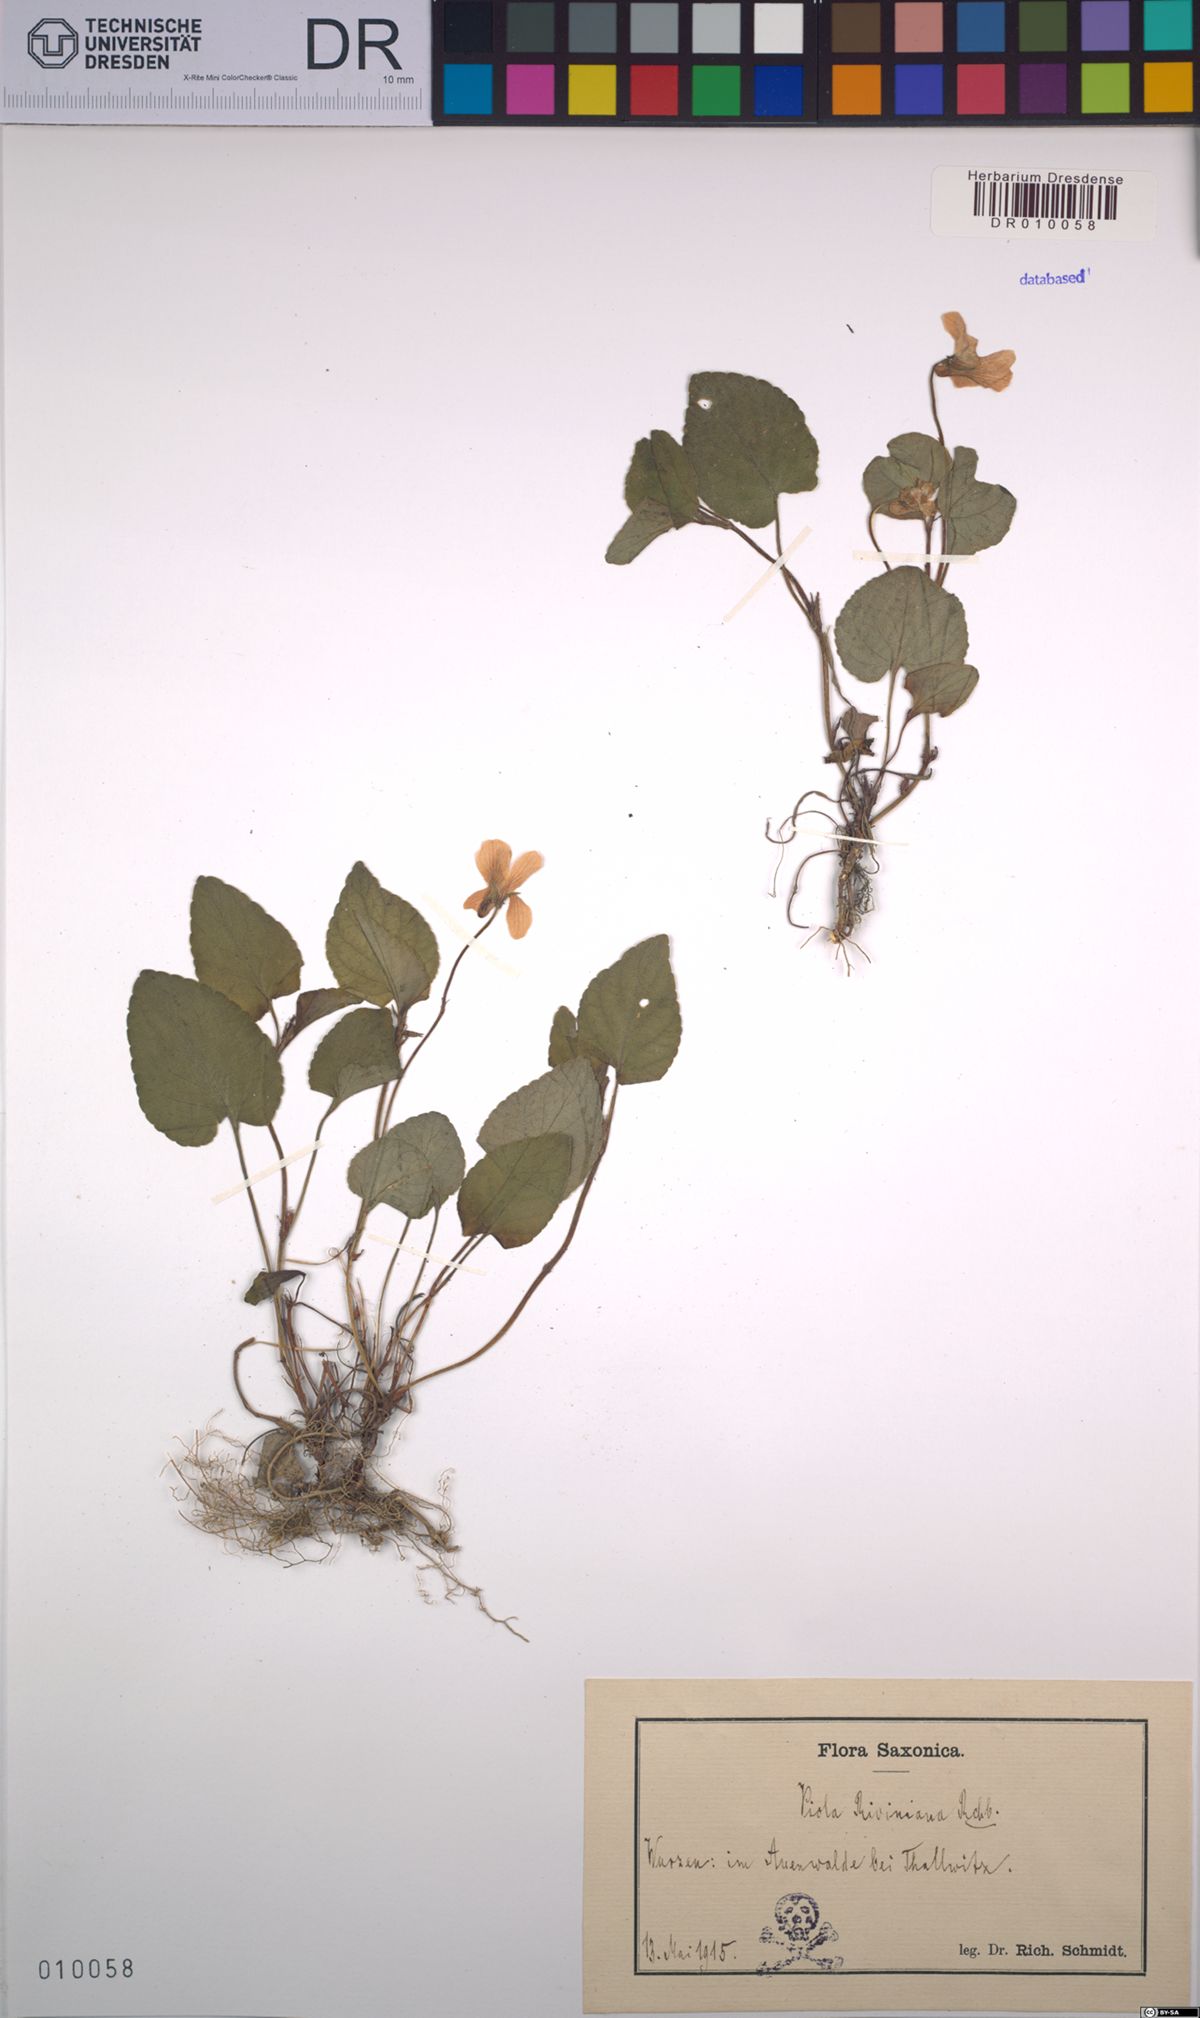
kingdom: Plantae
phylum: Tracheophyta
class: Magnoliopsida
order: Malpighiales
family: Violaceae
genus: Viola
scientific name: Viola riviniana
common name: Common dog-violet
